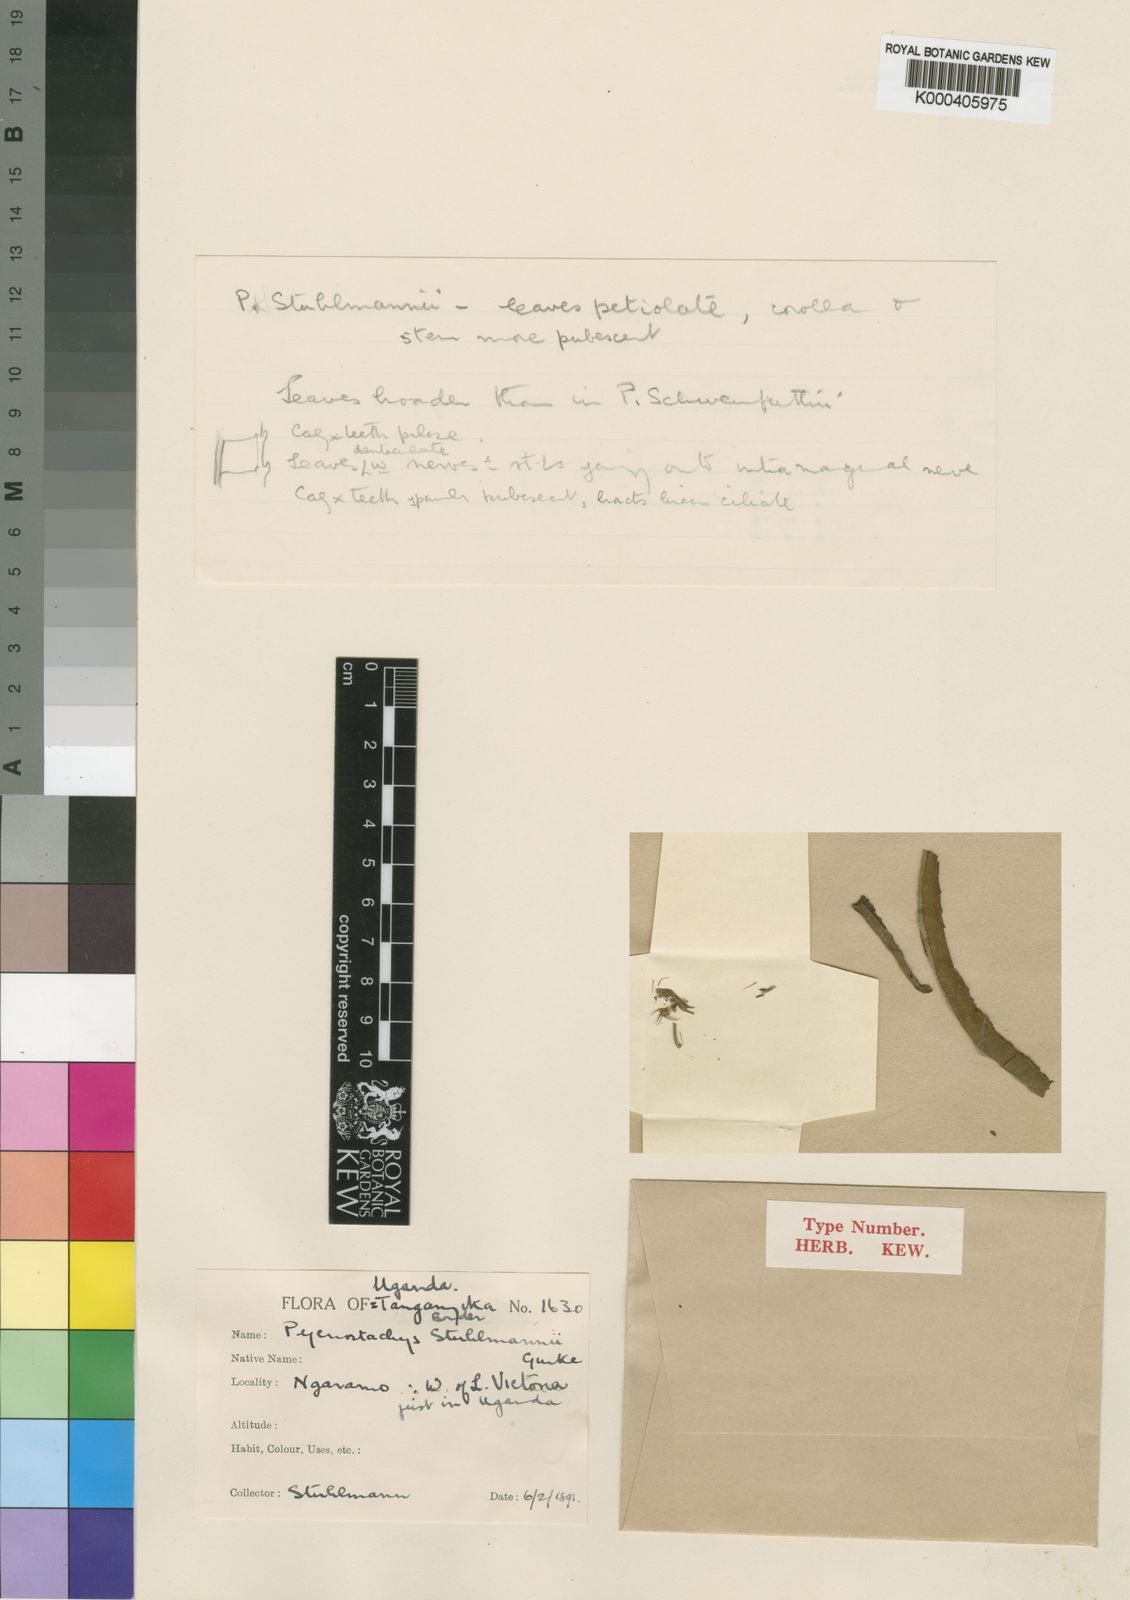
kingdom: Plantae
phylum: Tracheophyta
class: Magnoliopsida
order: Lamiales
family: Lamiaceae
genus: Coleus
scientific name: Coleus
